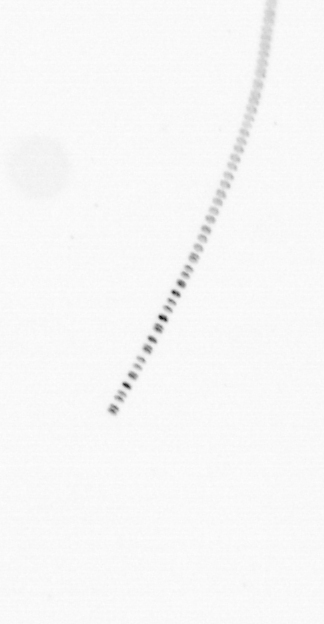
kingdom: Chromista
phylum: Ochrophyta
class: Bacillariophyceae
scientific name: Bacillariophyceae
